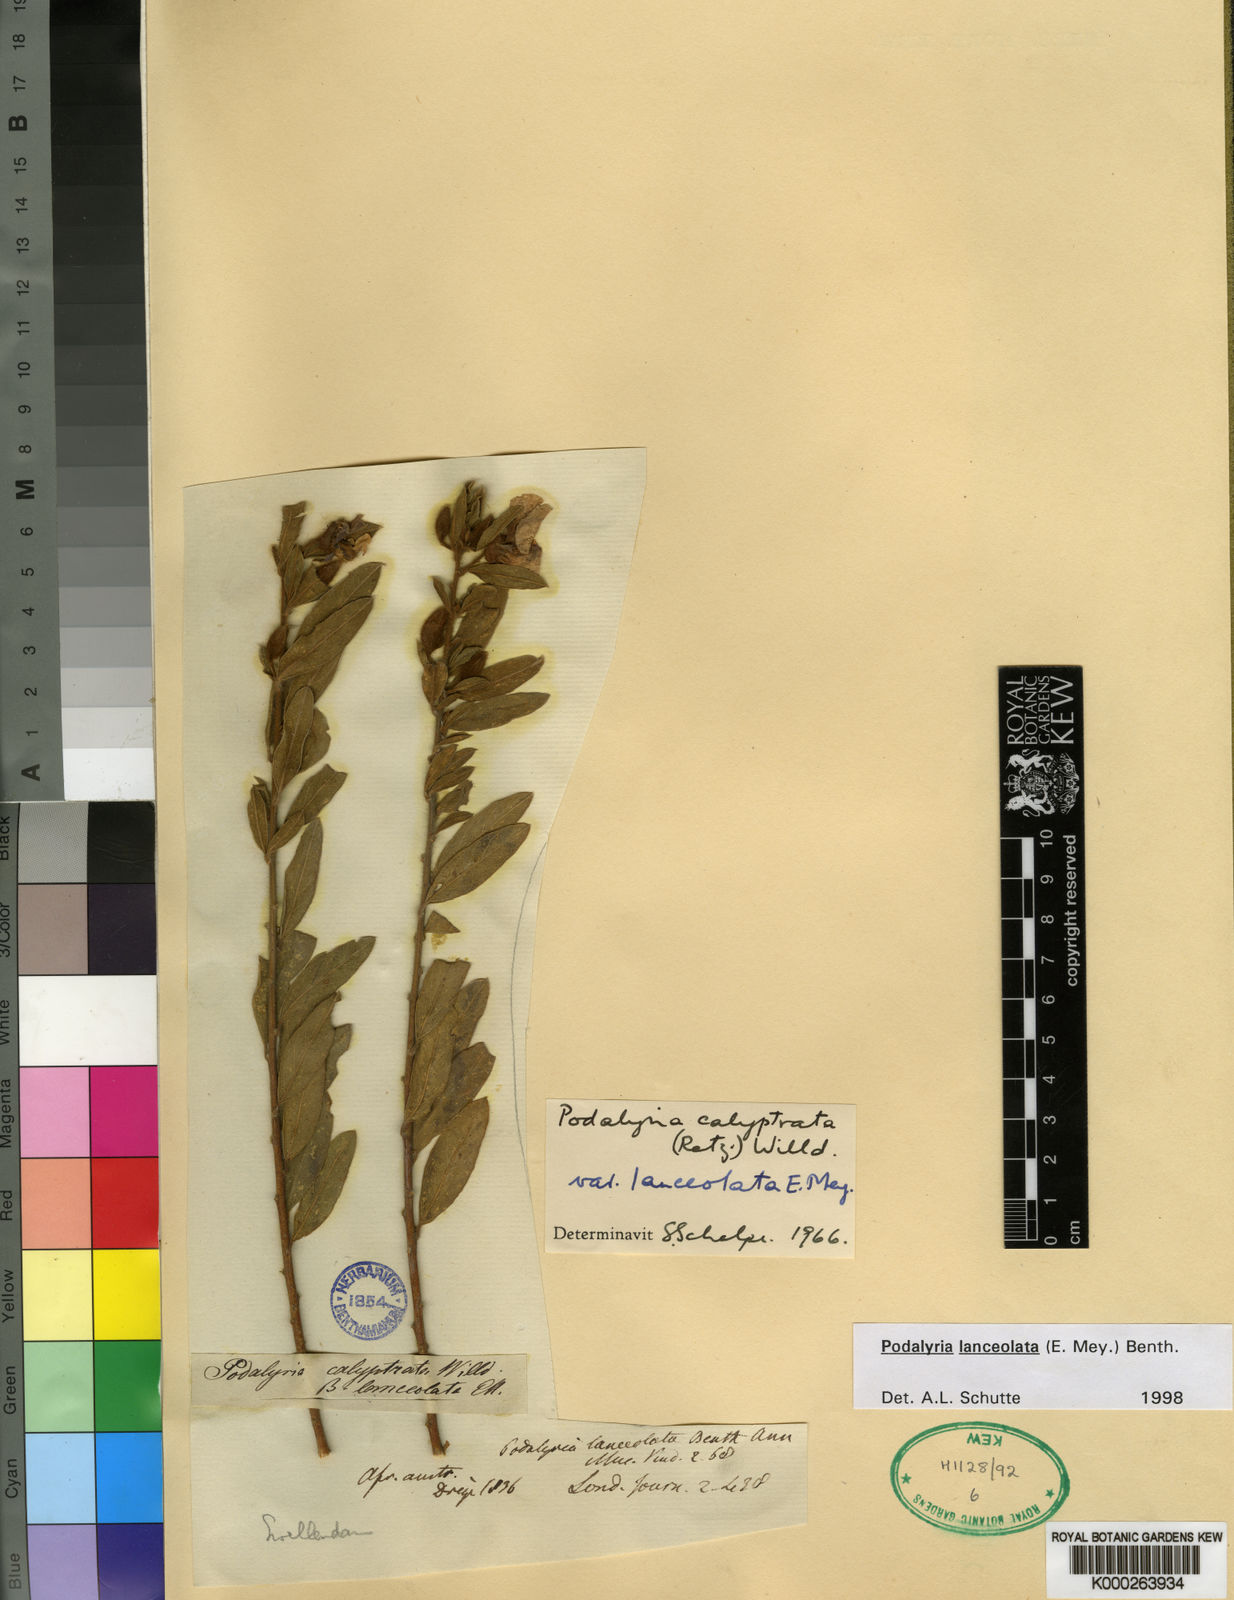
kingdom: Plantae
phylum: Tracheophyta
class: Magnoliopsida
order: Fabales
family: Fabaceae
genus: Podalyria
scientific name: Podalyria lanceolata
